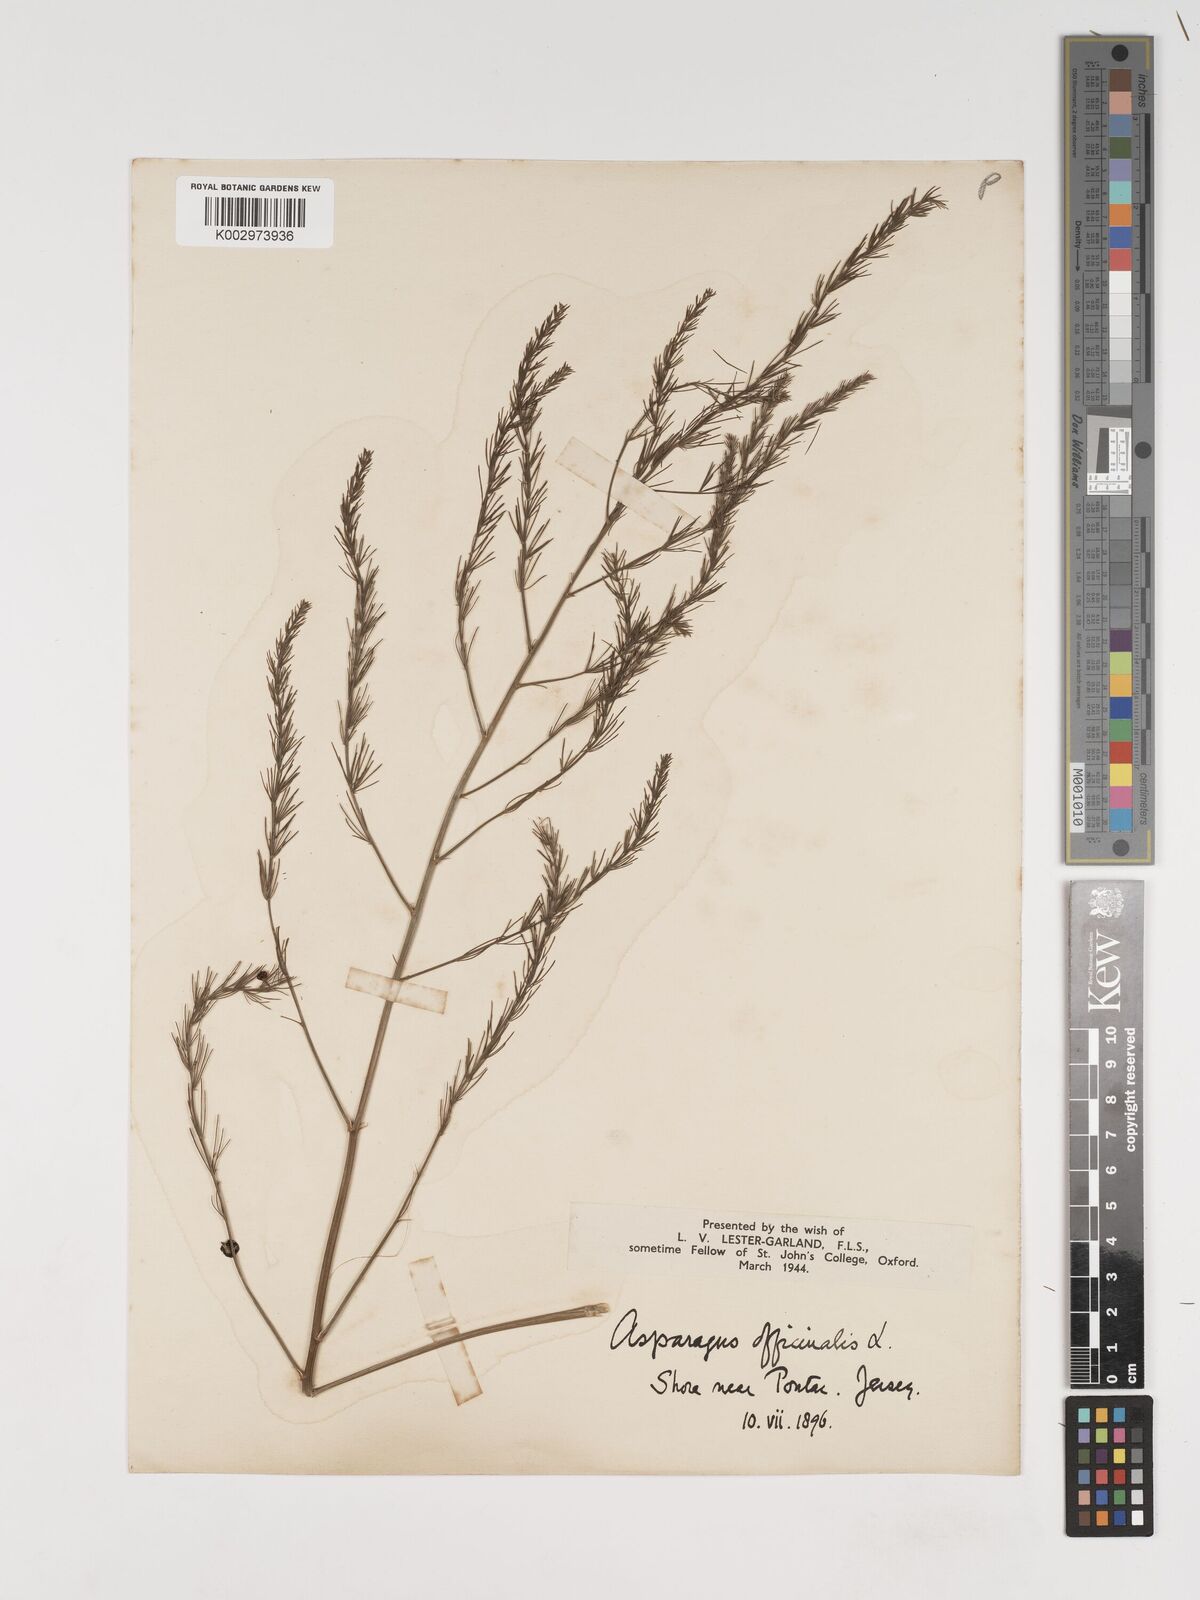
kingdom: Plantae
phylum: Tracheophyta
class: Liliopsida
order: Asparagales
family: Asparagaceae
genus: Asparagus
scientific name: Asparagus officinalis
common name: Garden asparagus
